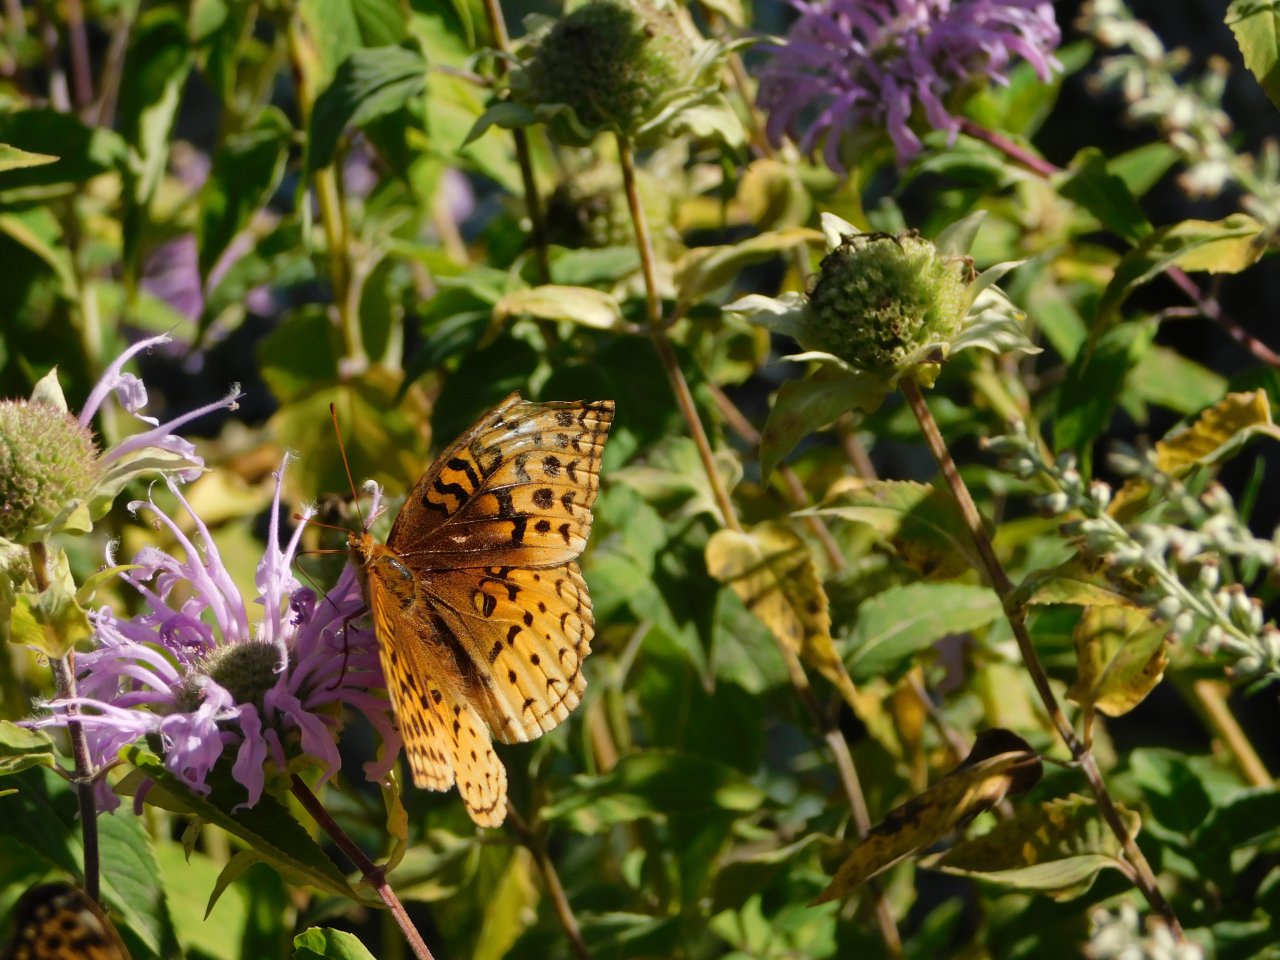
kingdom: Animalia
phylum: Arthropoda
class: Insecta
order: Lepidoptera
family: Nymphalidae
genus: Speyeria
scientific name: Speyeria cybele
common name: Great Spangled Fritillary
